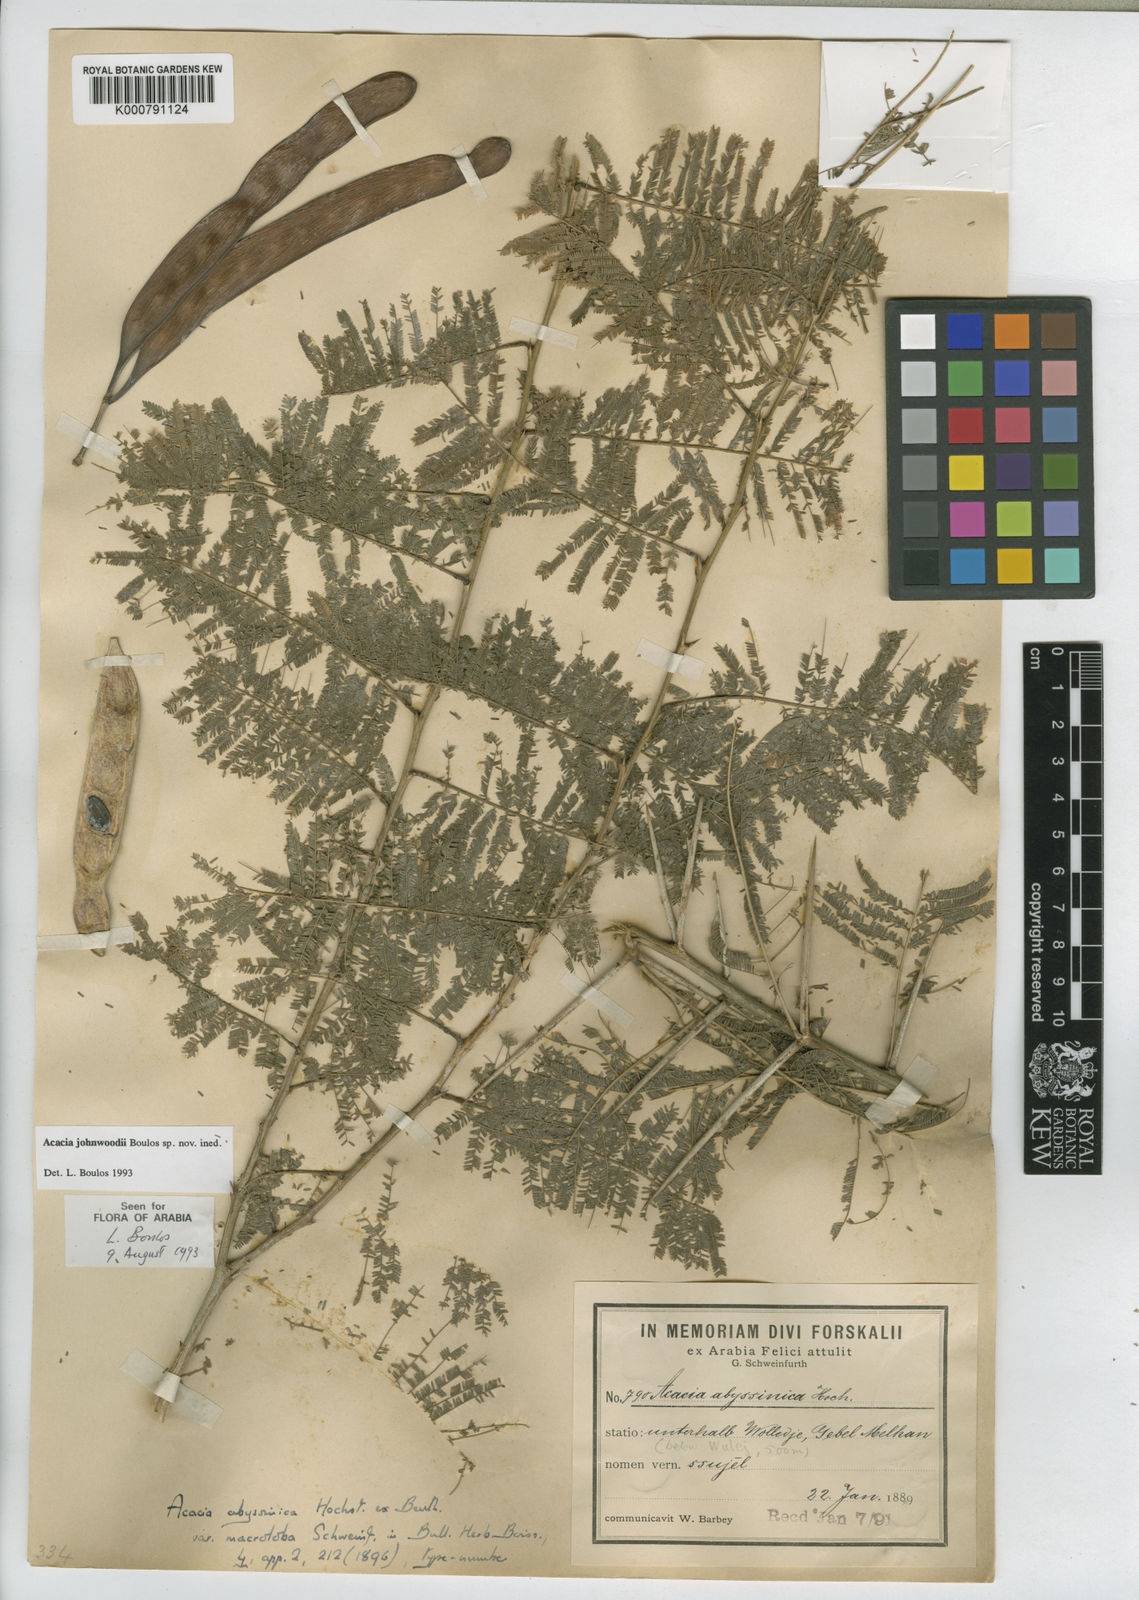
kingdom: Plantae
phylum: Tracheophyta
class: Magnoliopsida
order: Fabales
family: Fabaceae
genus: Vachellia
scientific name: Vachellia johnwoodii
